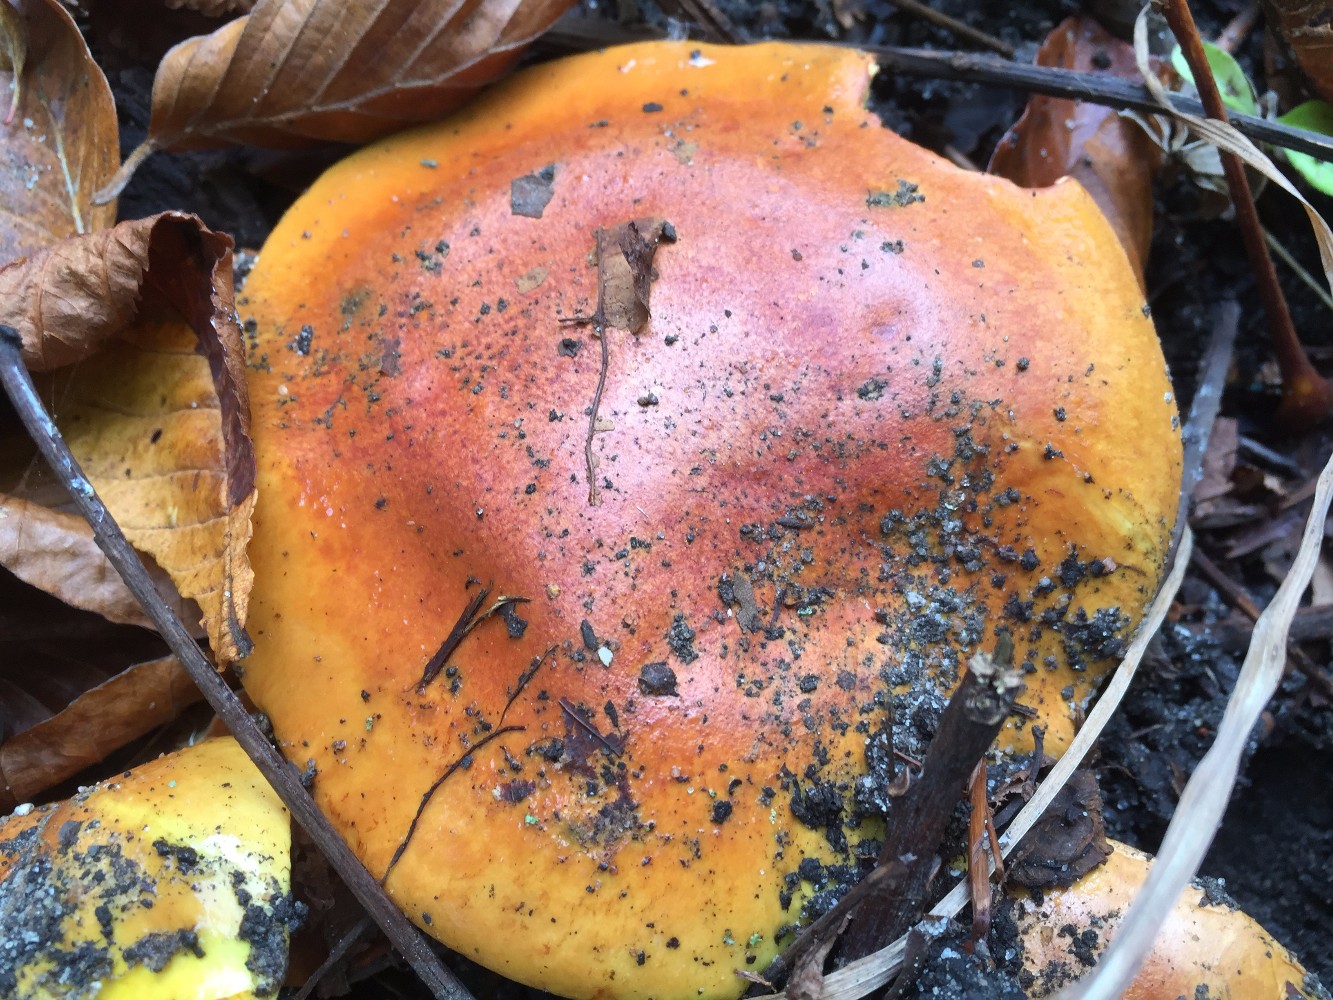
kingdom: Fungi
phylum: Basidiomycota
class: Agaricomycetes
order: Agaricales
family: Cortinariaceae
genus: Cortinarius
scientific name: Cortinarius bergeronii
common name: prægtig slørhat
